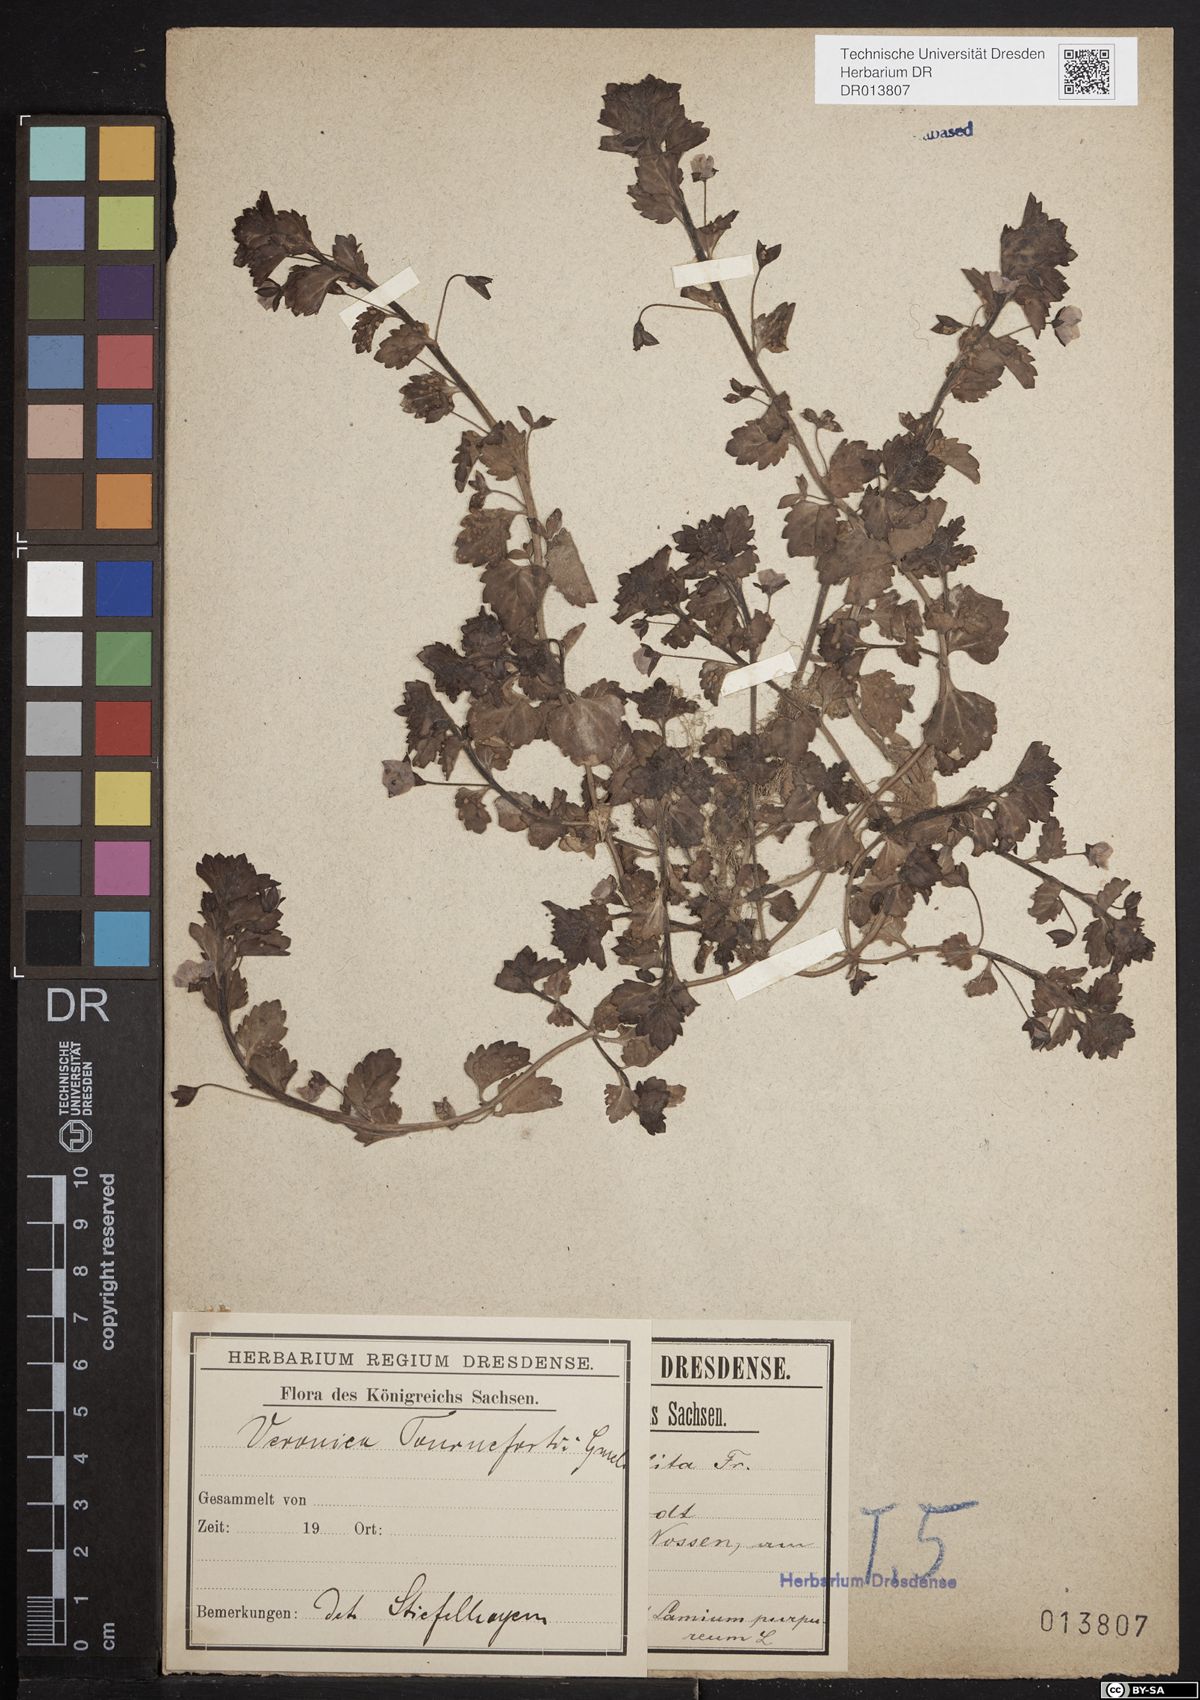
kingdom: Plantae
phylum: Tracheophyta
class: Magnoliopsida
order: Lamiales
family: Plantaginaceae
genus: Veronica
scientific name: Veronica persica
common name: Common field-speedwell
